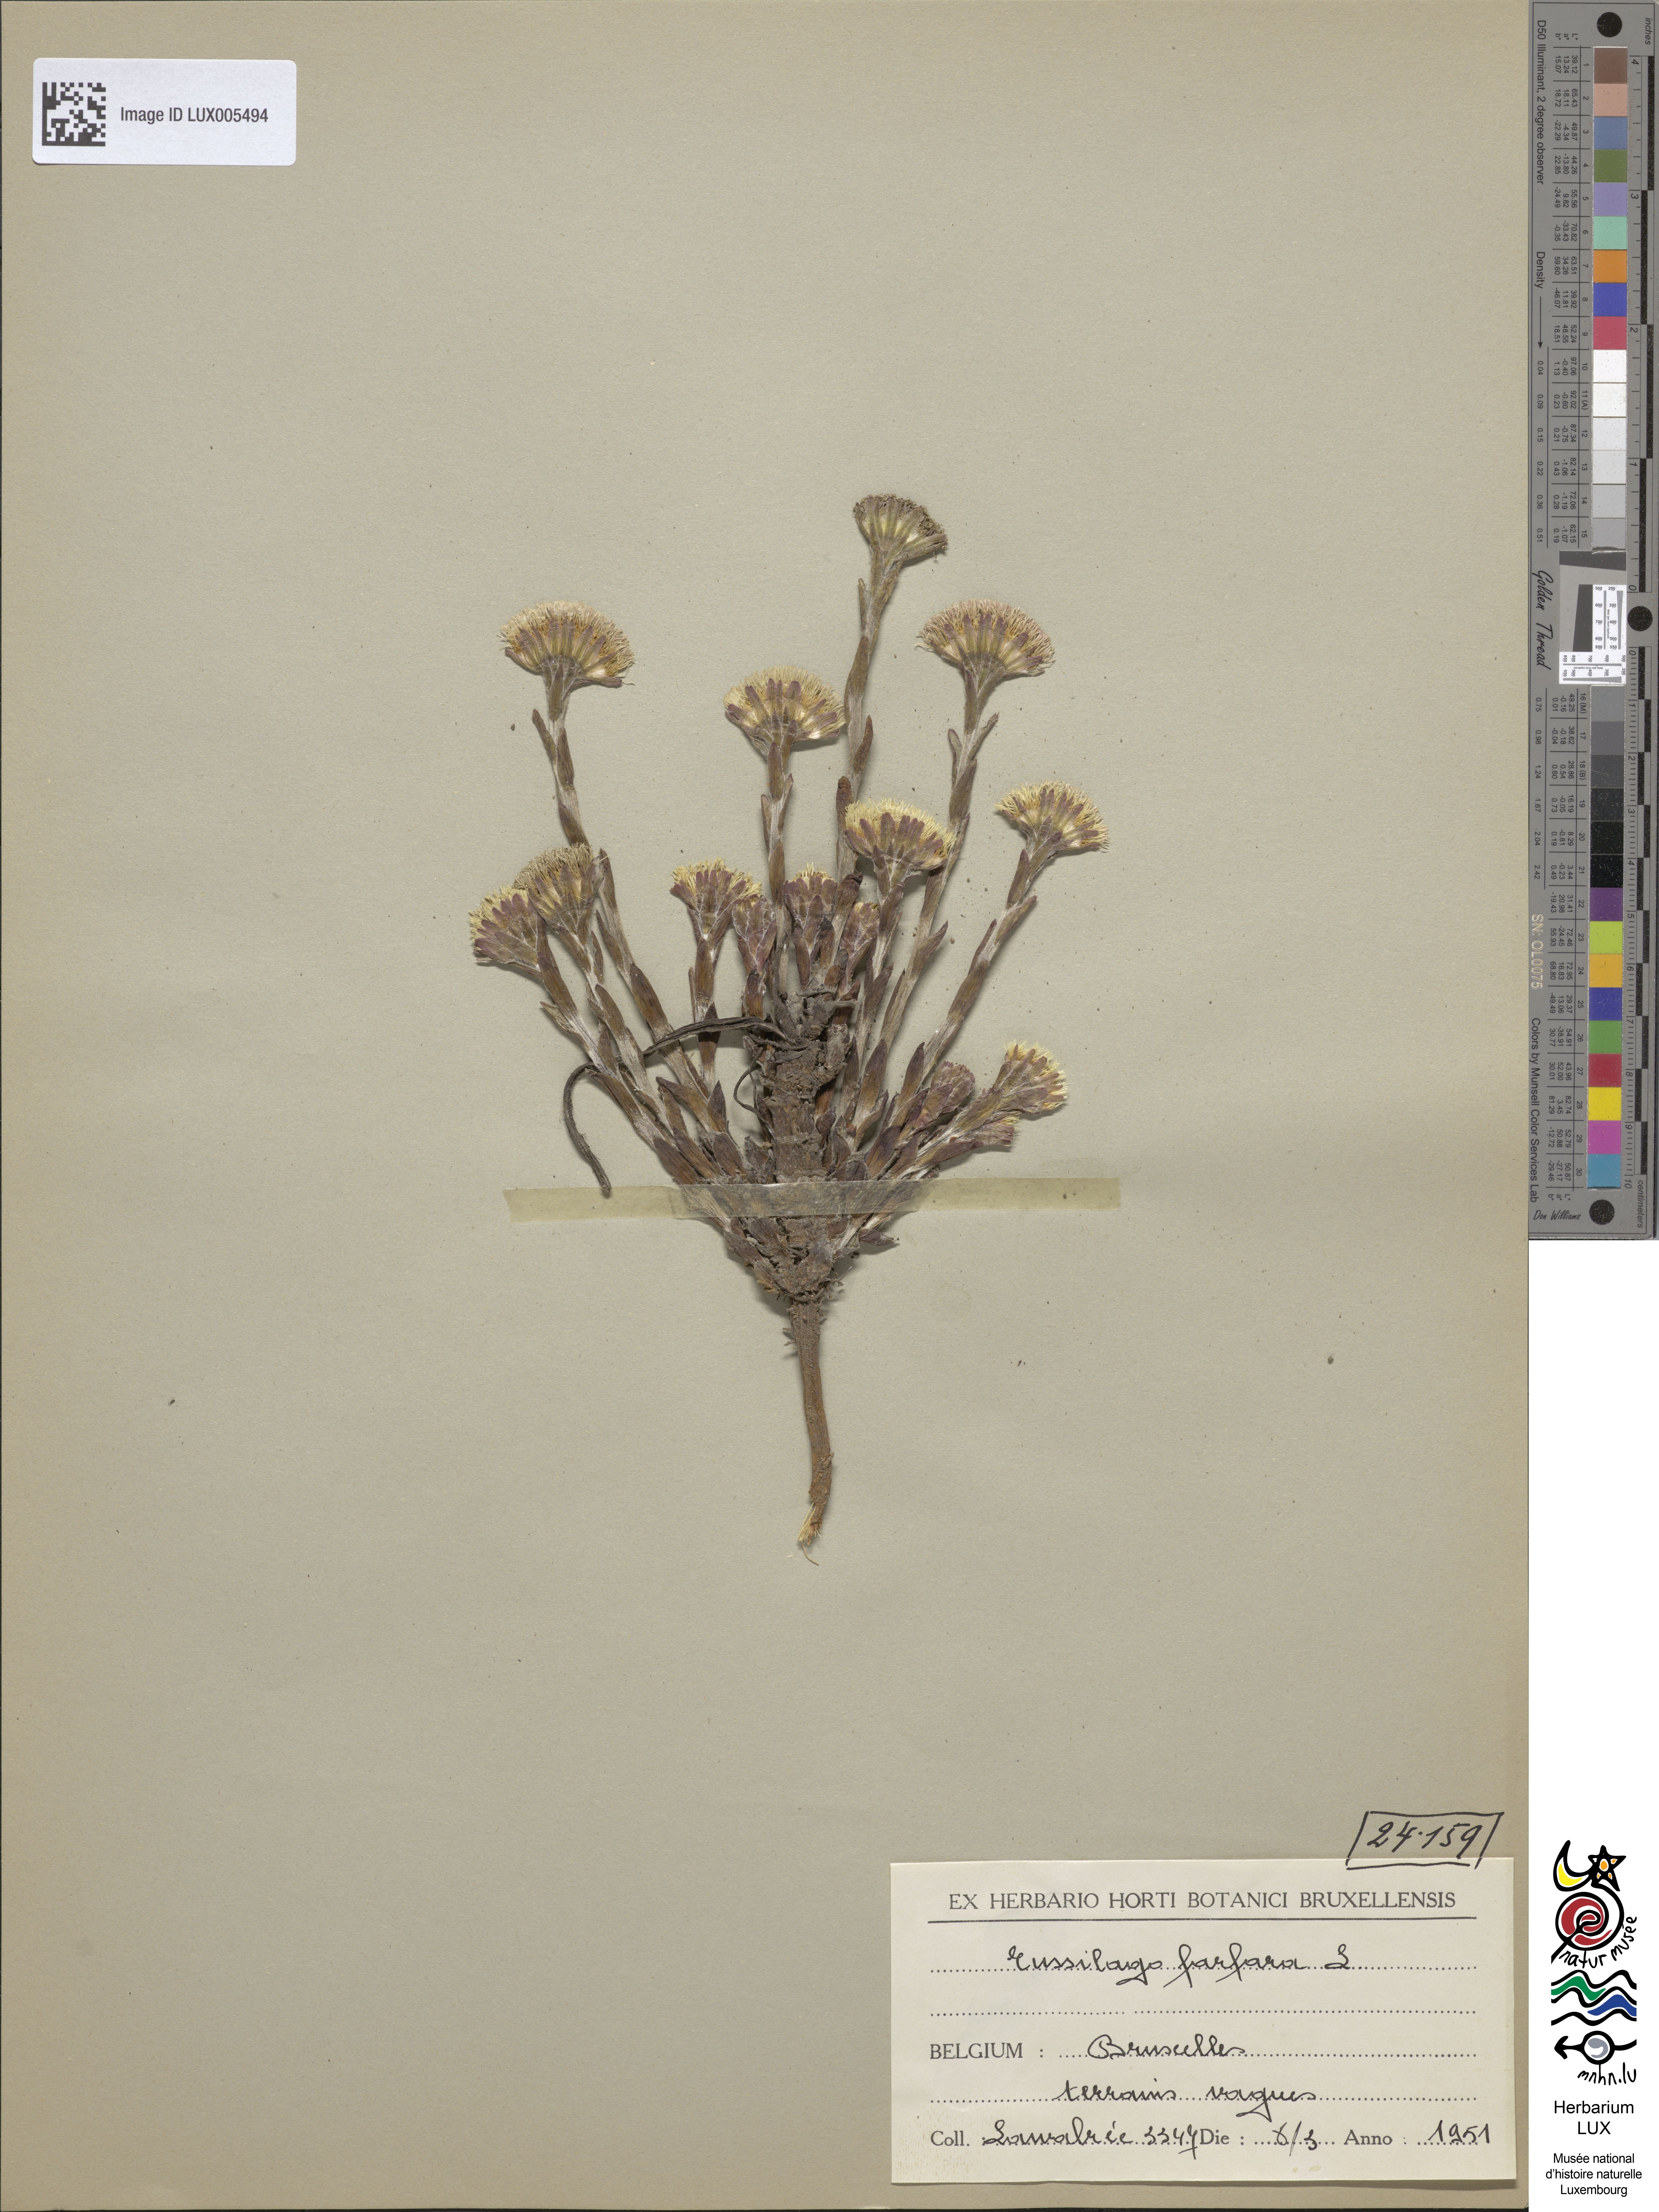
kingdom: Plantae
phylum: Tracheophyta
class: Magnoliopsida
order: Asterales
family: Asteraceae
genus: Tussilago
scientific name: Tussilago farfara
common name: Coltsfoot
